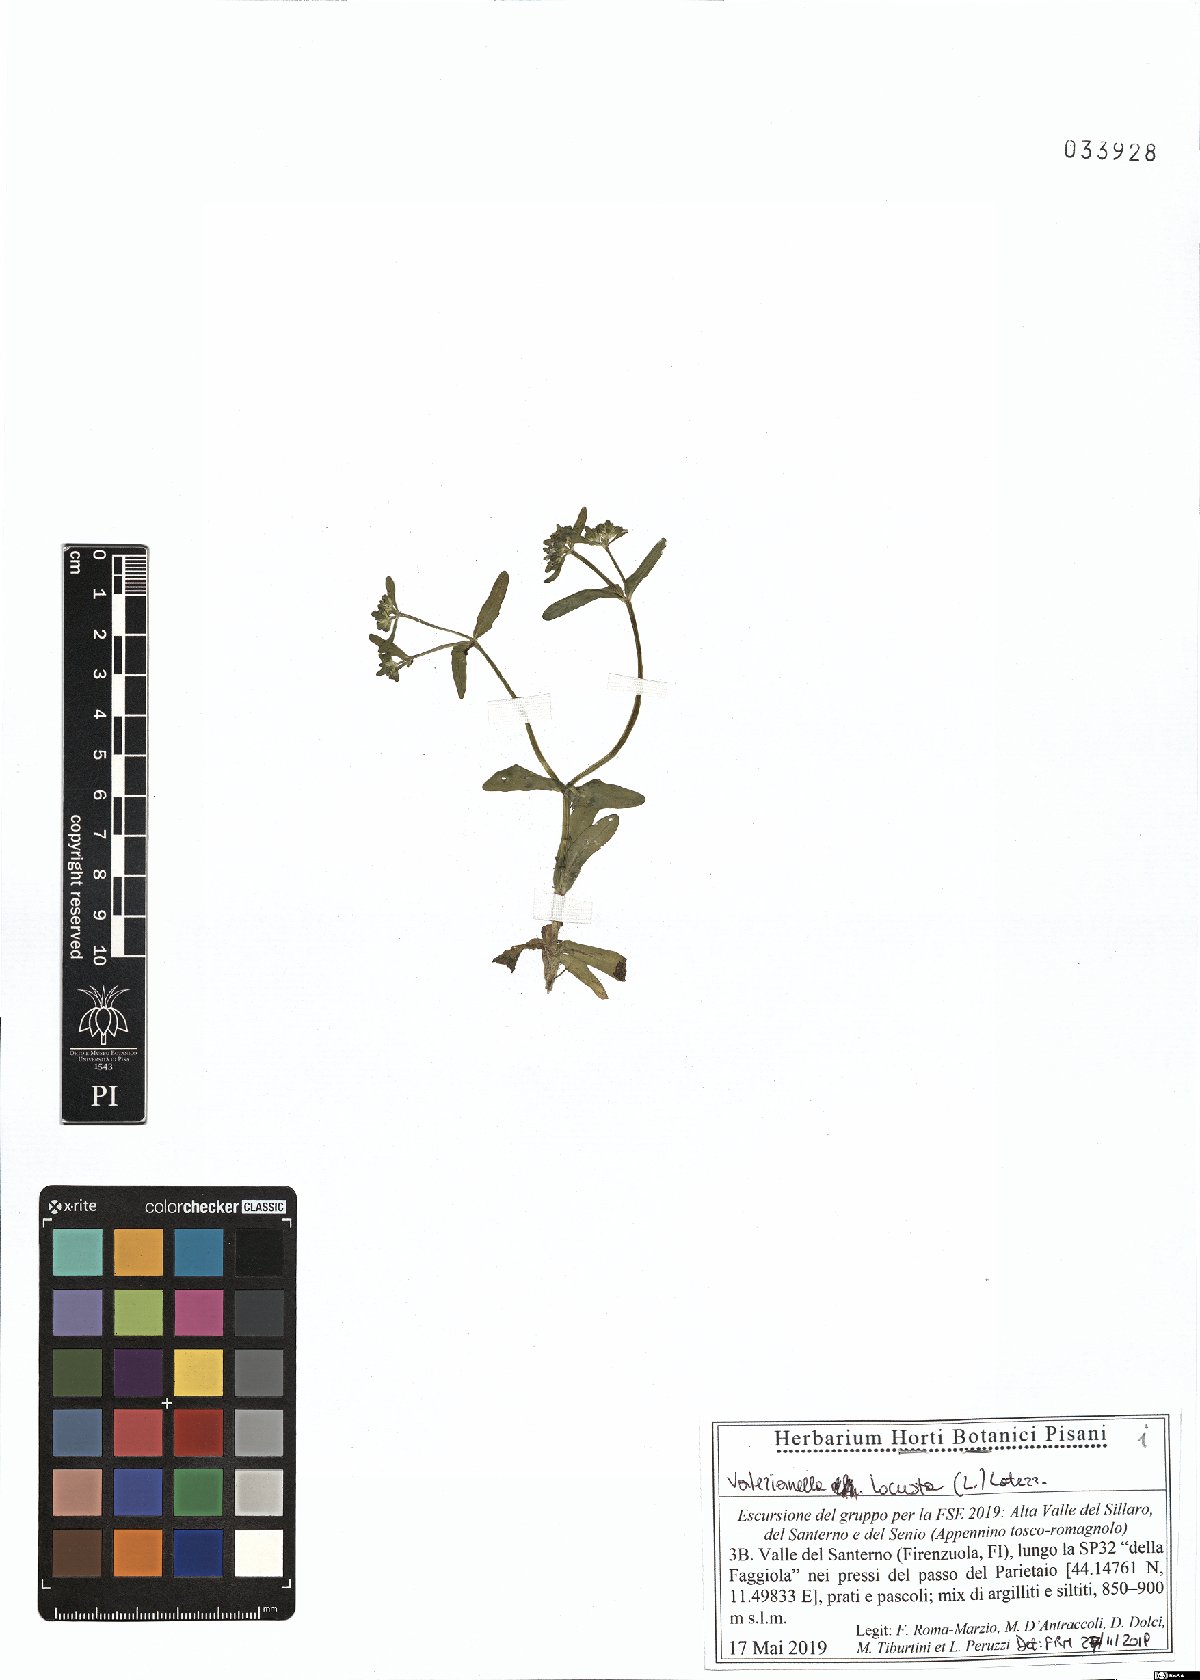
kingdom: Plantae
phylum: Tracheophyta
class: Magnoliopsida
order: Dipsacales
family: Caprifoliaceae
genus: Valerianella
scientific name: Valerianella locusta
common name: Common cornsalad
